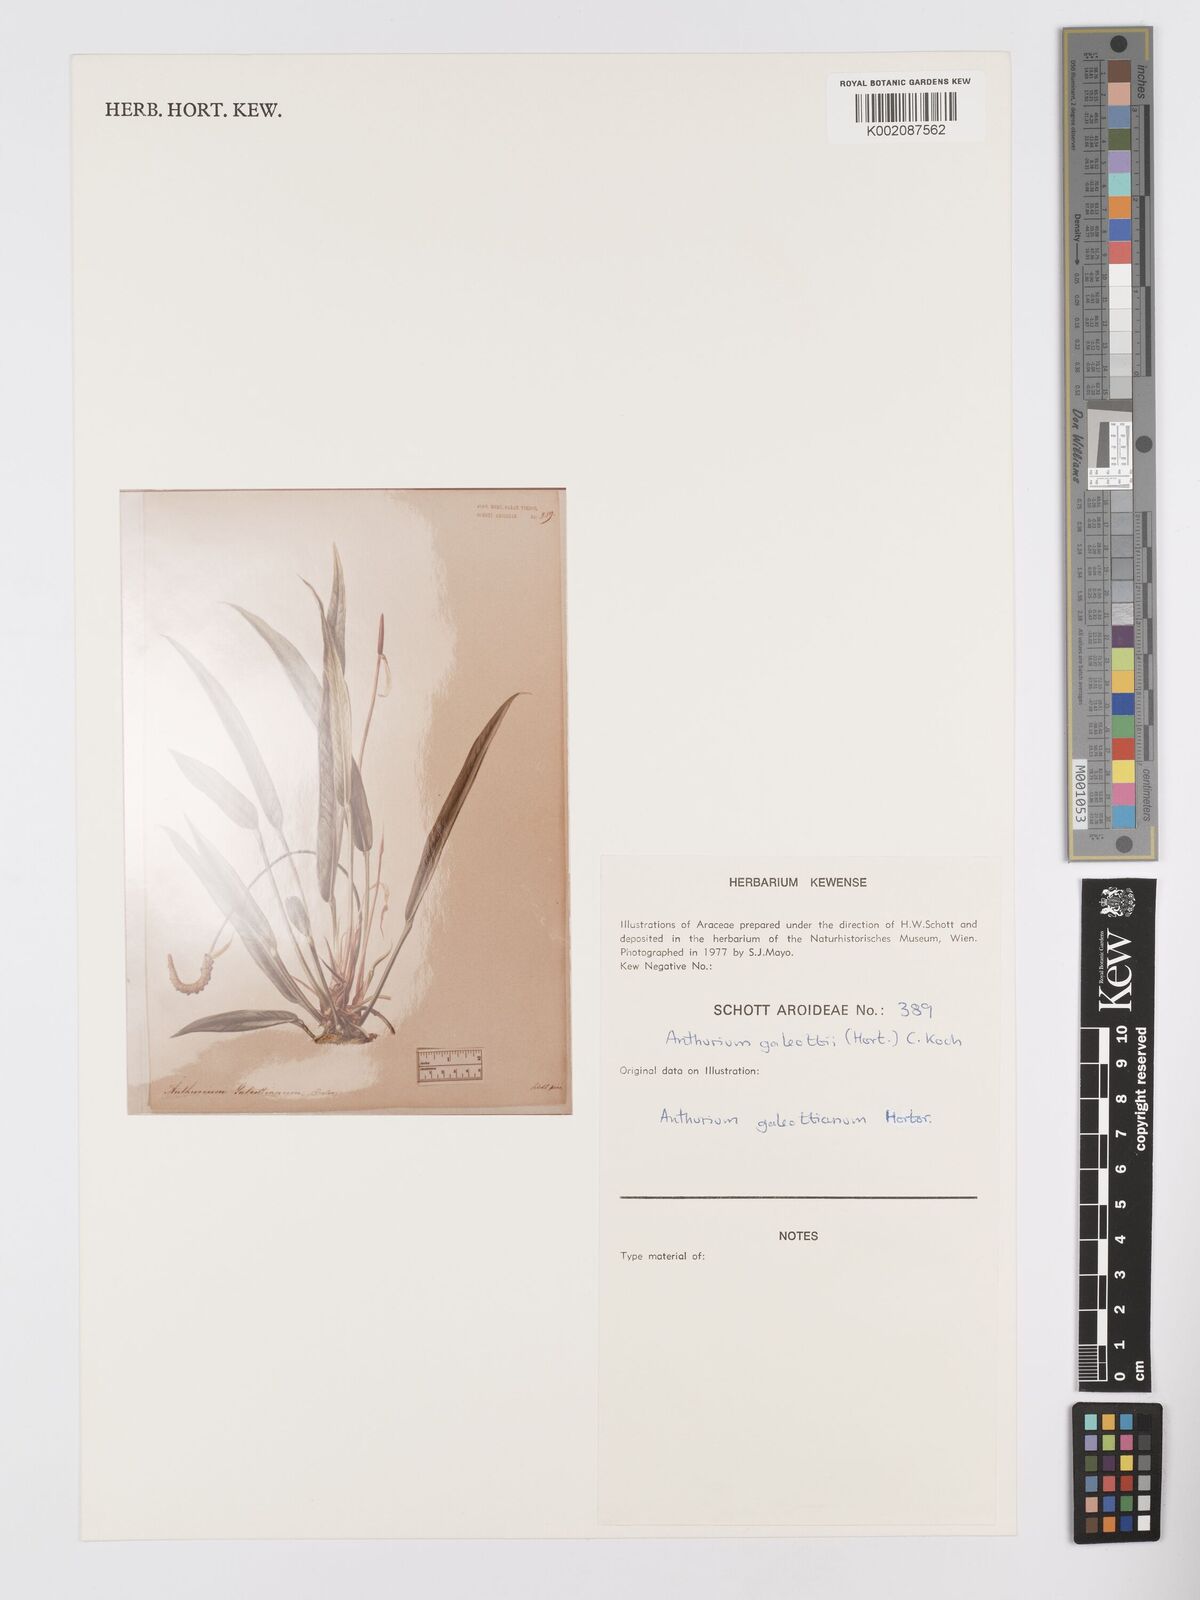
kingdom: Plantae
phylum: Tracheophyta
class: Liliopsida
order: Alismatales
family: Araceae
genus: Anthurium
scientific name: Anthurium galeottii
